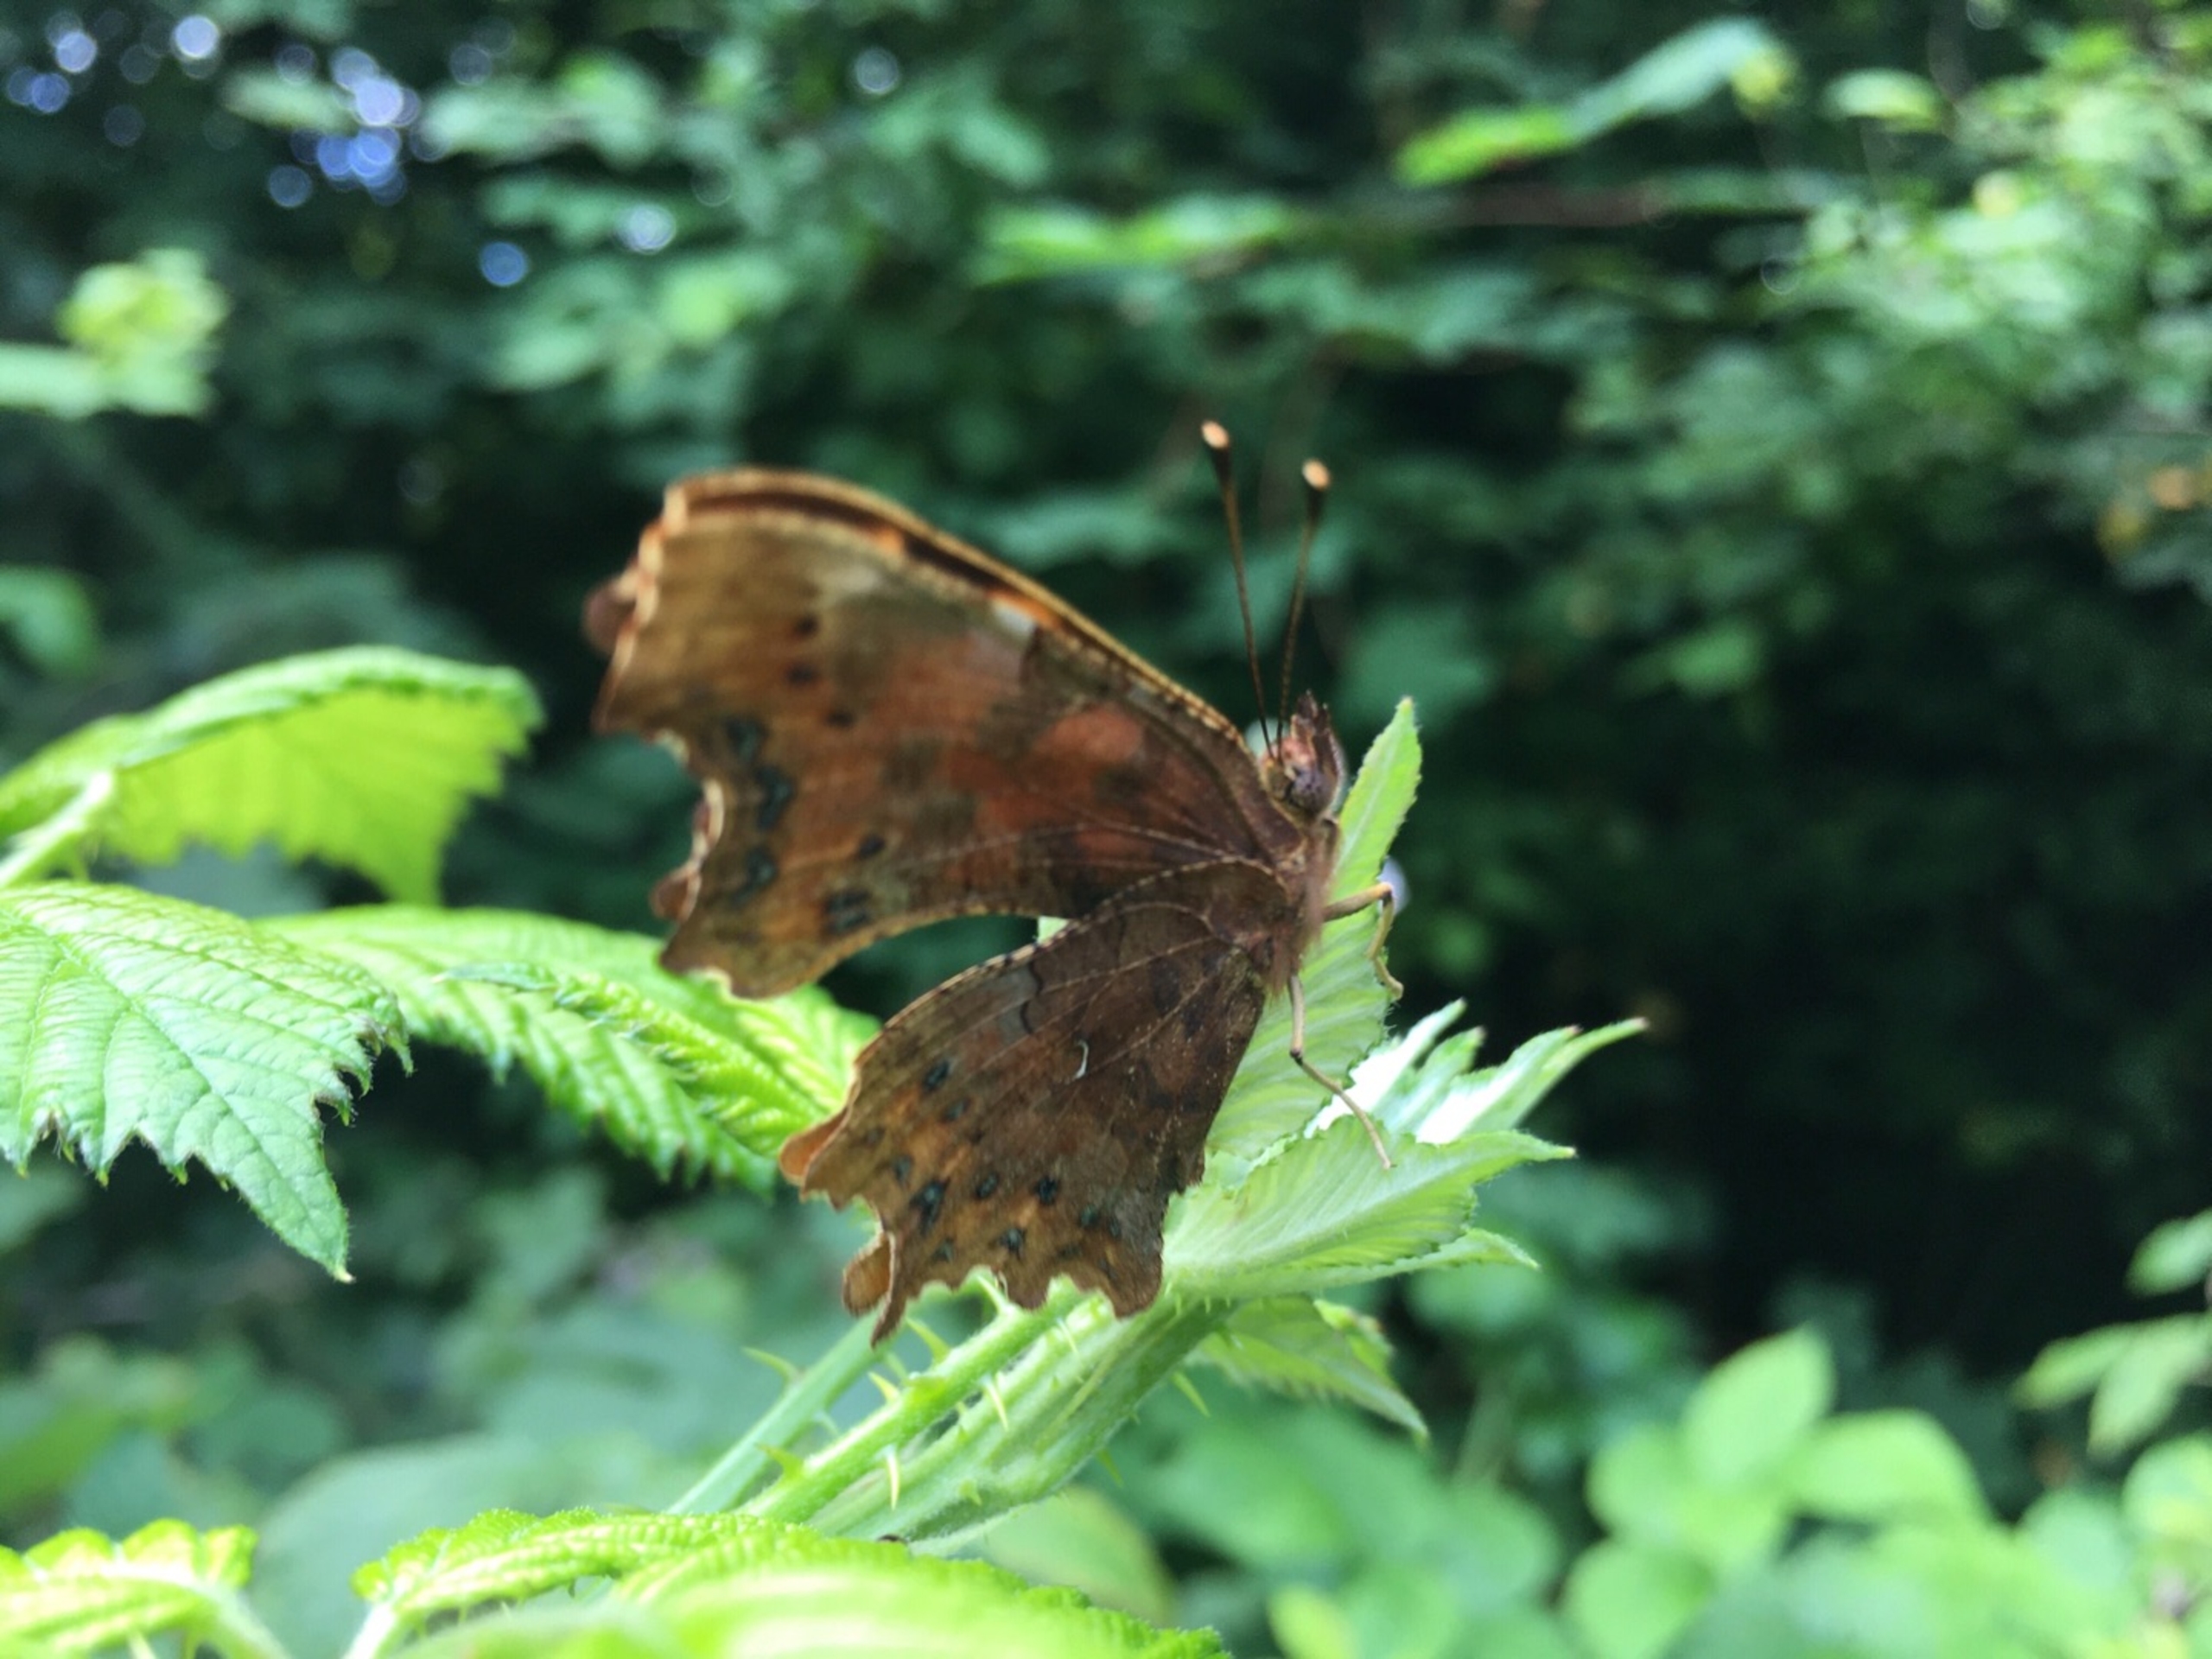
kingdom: Animalia
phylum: Arthropoda
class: Insecta
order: Lepidoptera
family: Nymphalidae
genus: Polygonia
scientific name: Polygonia c-album
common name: Det hvide C
